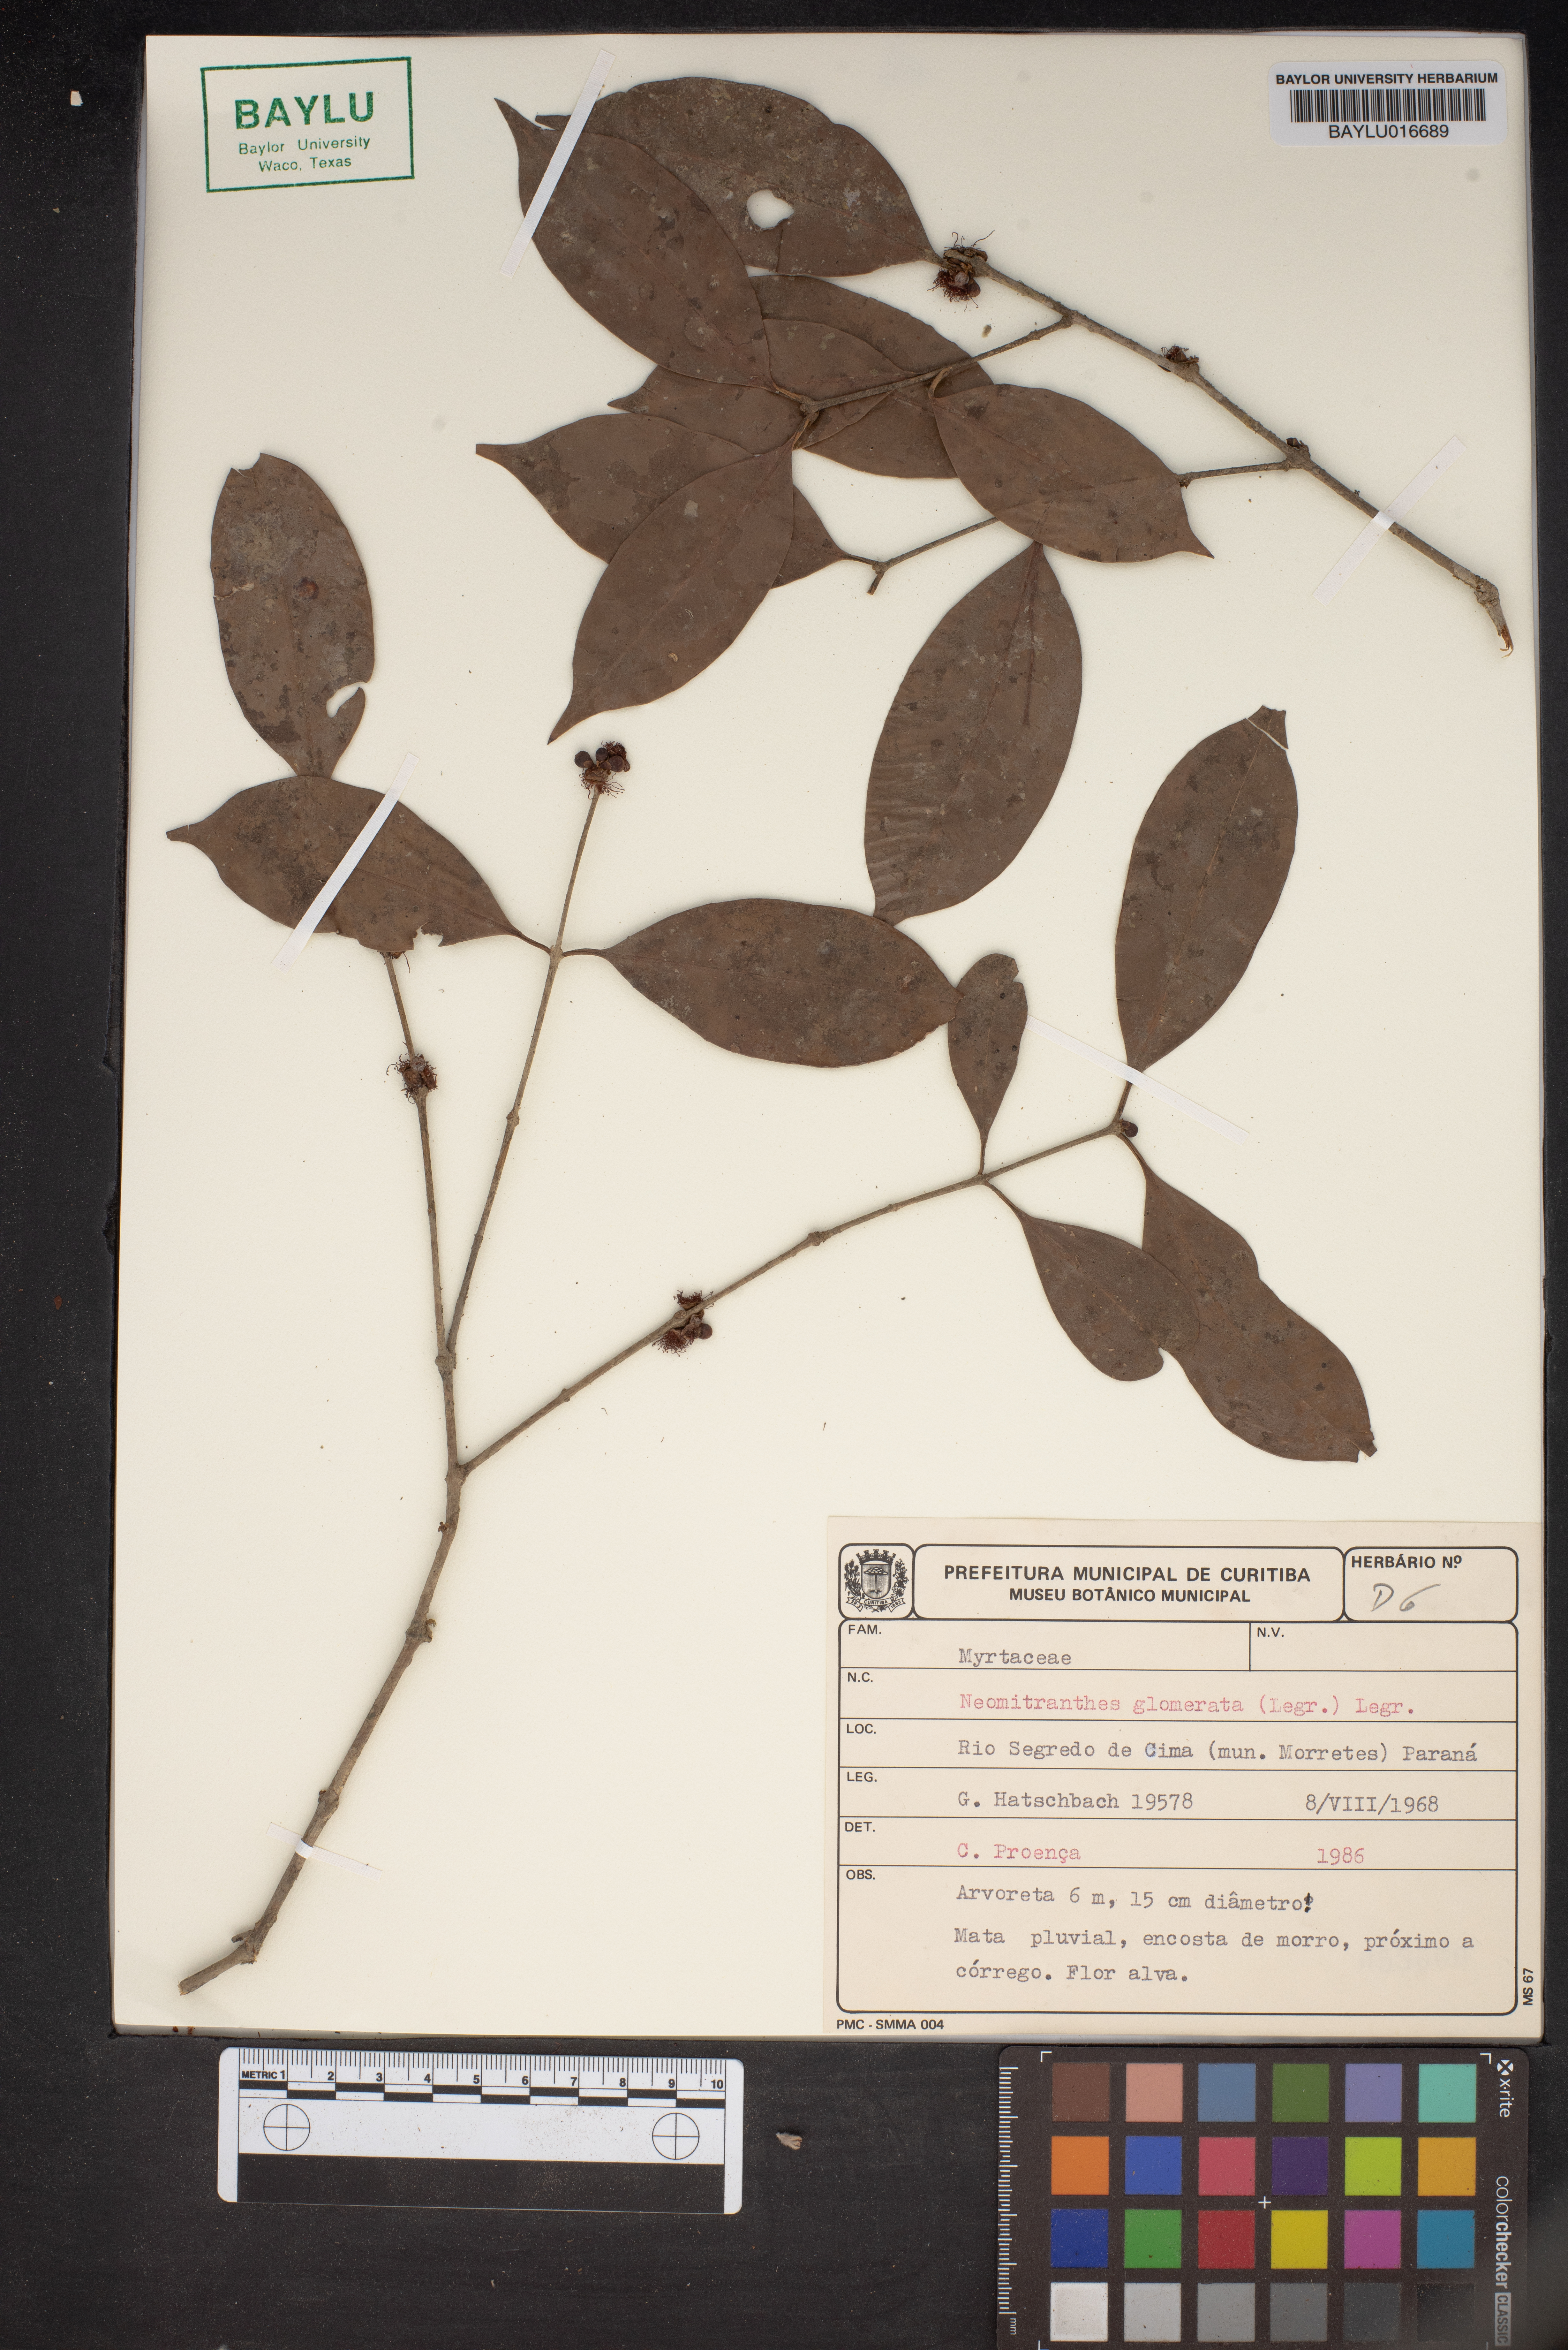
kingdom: Plantae
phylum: Tracheophyta
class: Magnoliopsida
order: Myrtales
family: Myrtaceae
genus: Neomitranthes
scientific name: Neomitranthes glomerata
